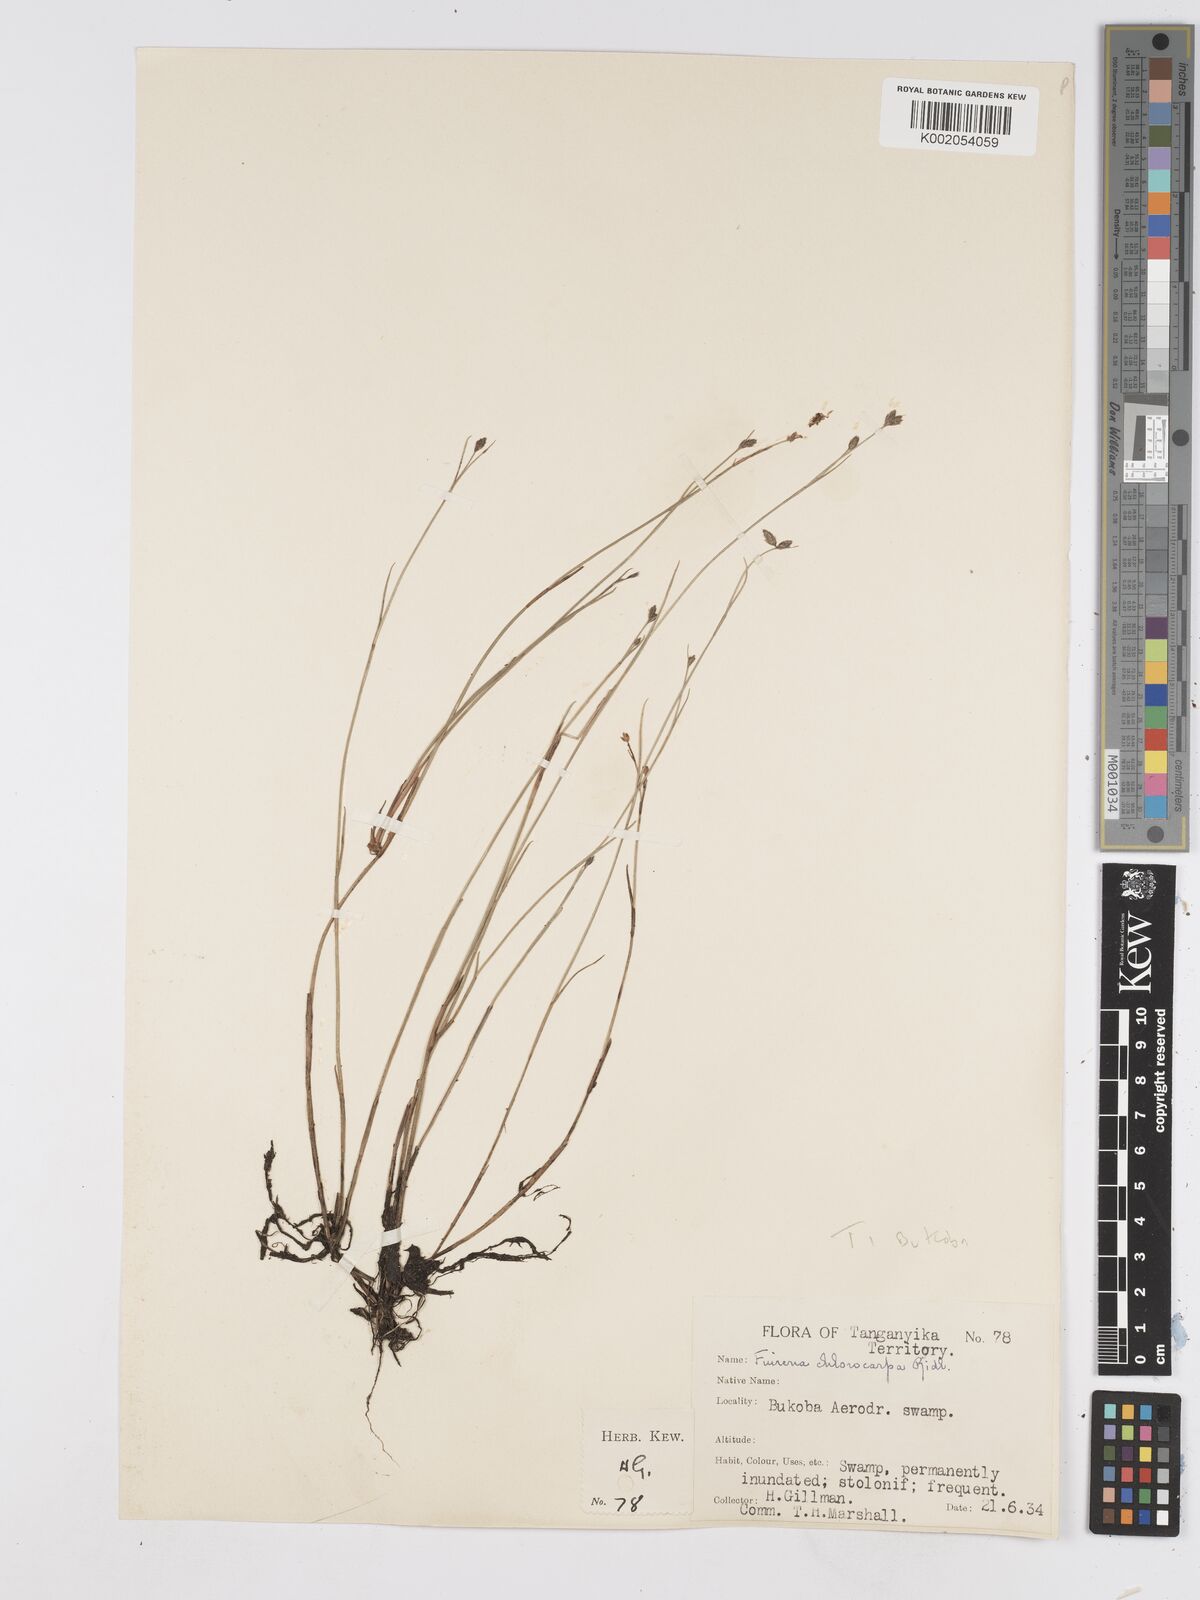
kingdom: Plantae
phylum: Tracheophyta
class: Liliopsida
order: Poales
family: Cyperaceae
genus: Fuirena
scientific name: Fuirena stricta
